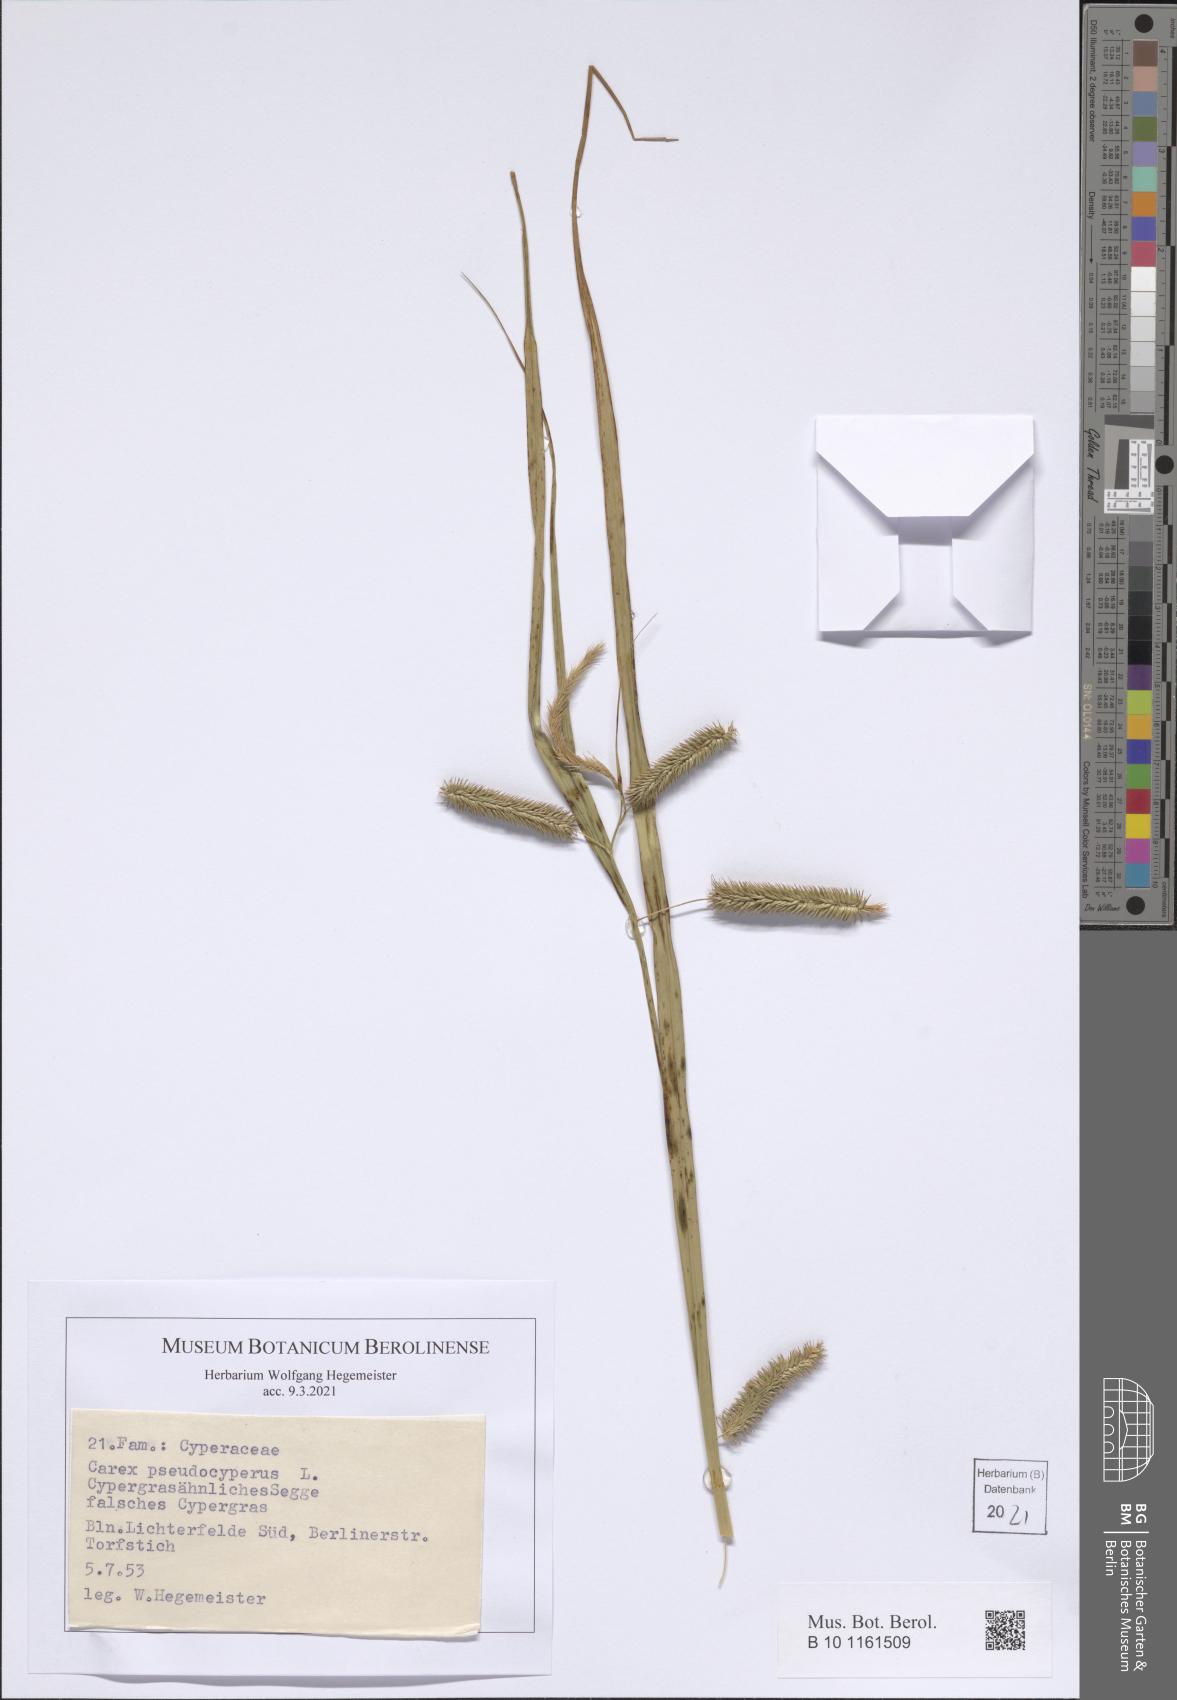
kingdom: Plantae
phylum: Tracheophyta
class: Liliopsida
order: Poales
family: Cyperaceae
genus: Carex
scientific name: Carex pseudocyperus
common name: Cyperus sedge
